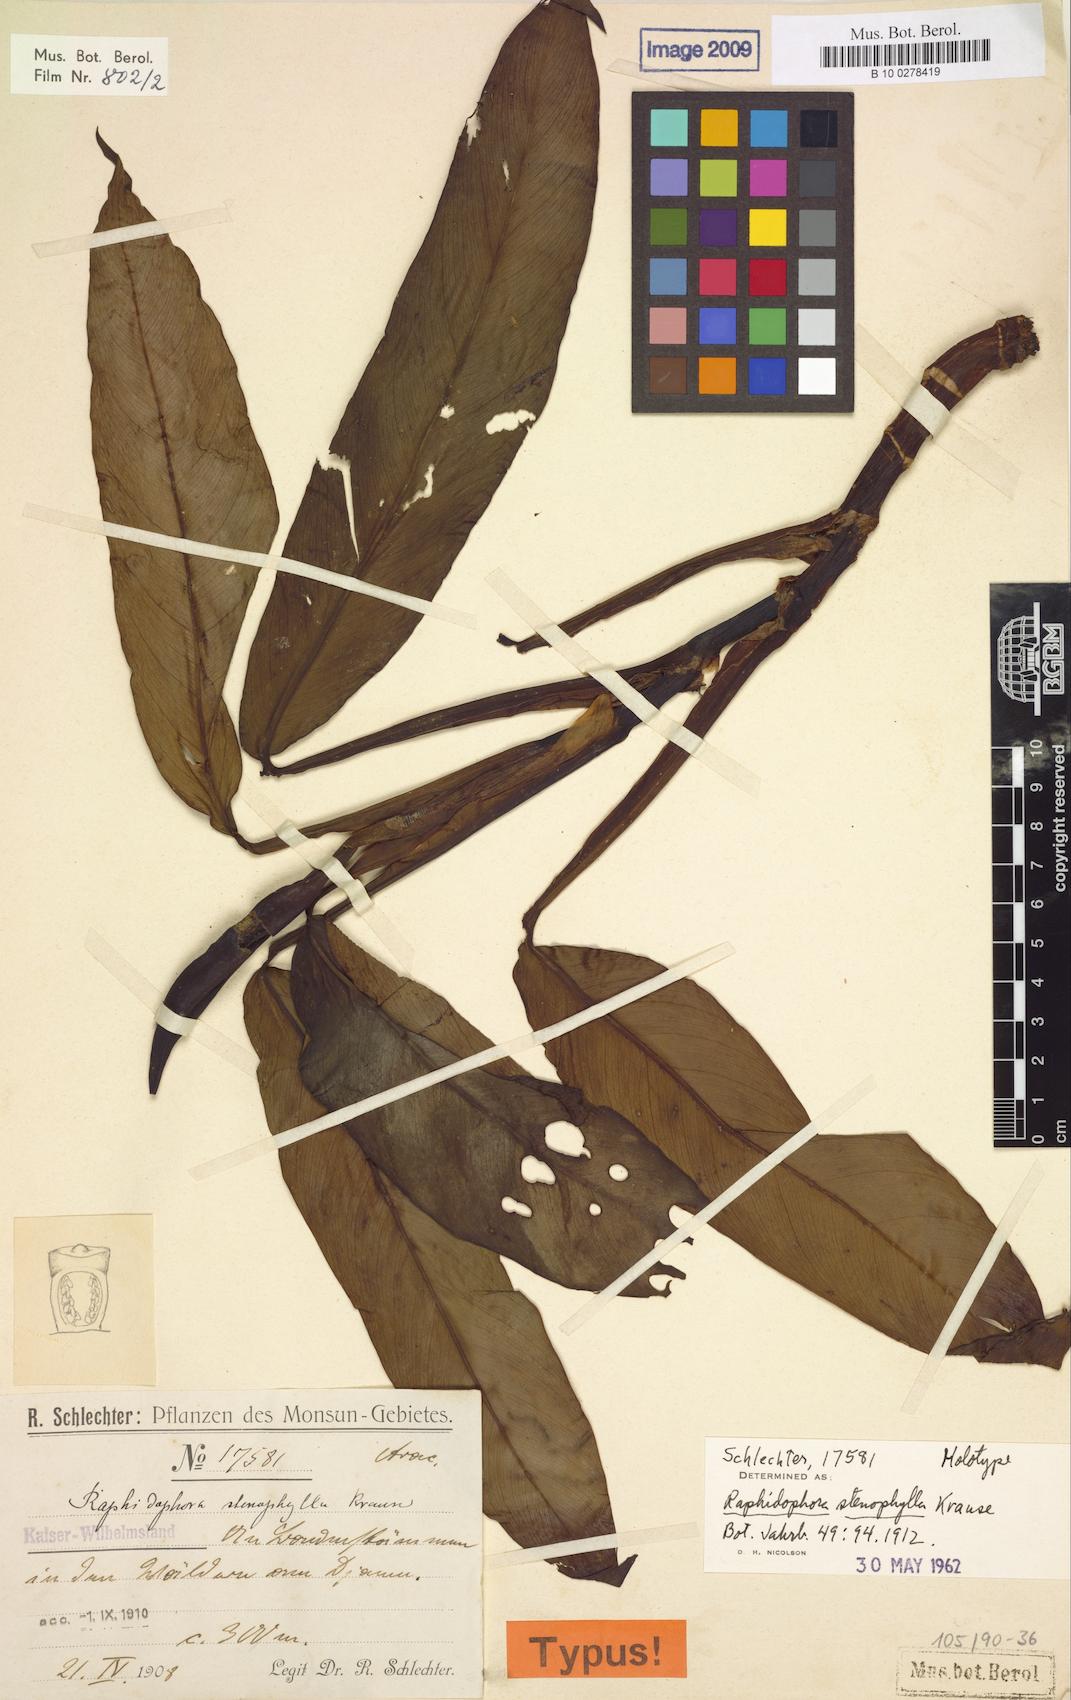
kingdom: Plantae
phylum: Tracheophyta
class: Liliopsida
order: Alismatales
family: Araceae
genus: Rhaphidophora
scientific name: Rhaphidophora stenophylla
